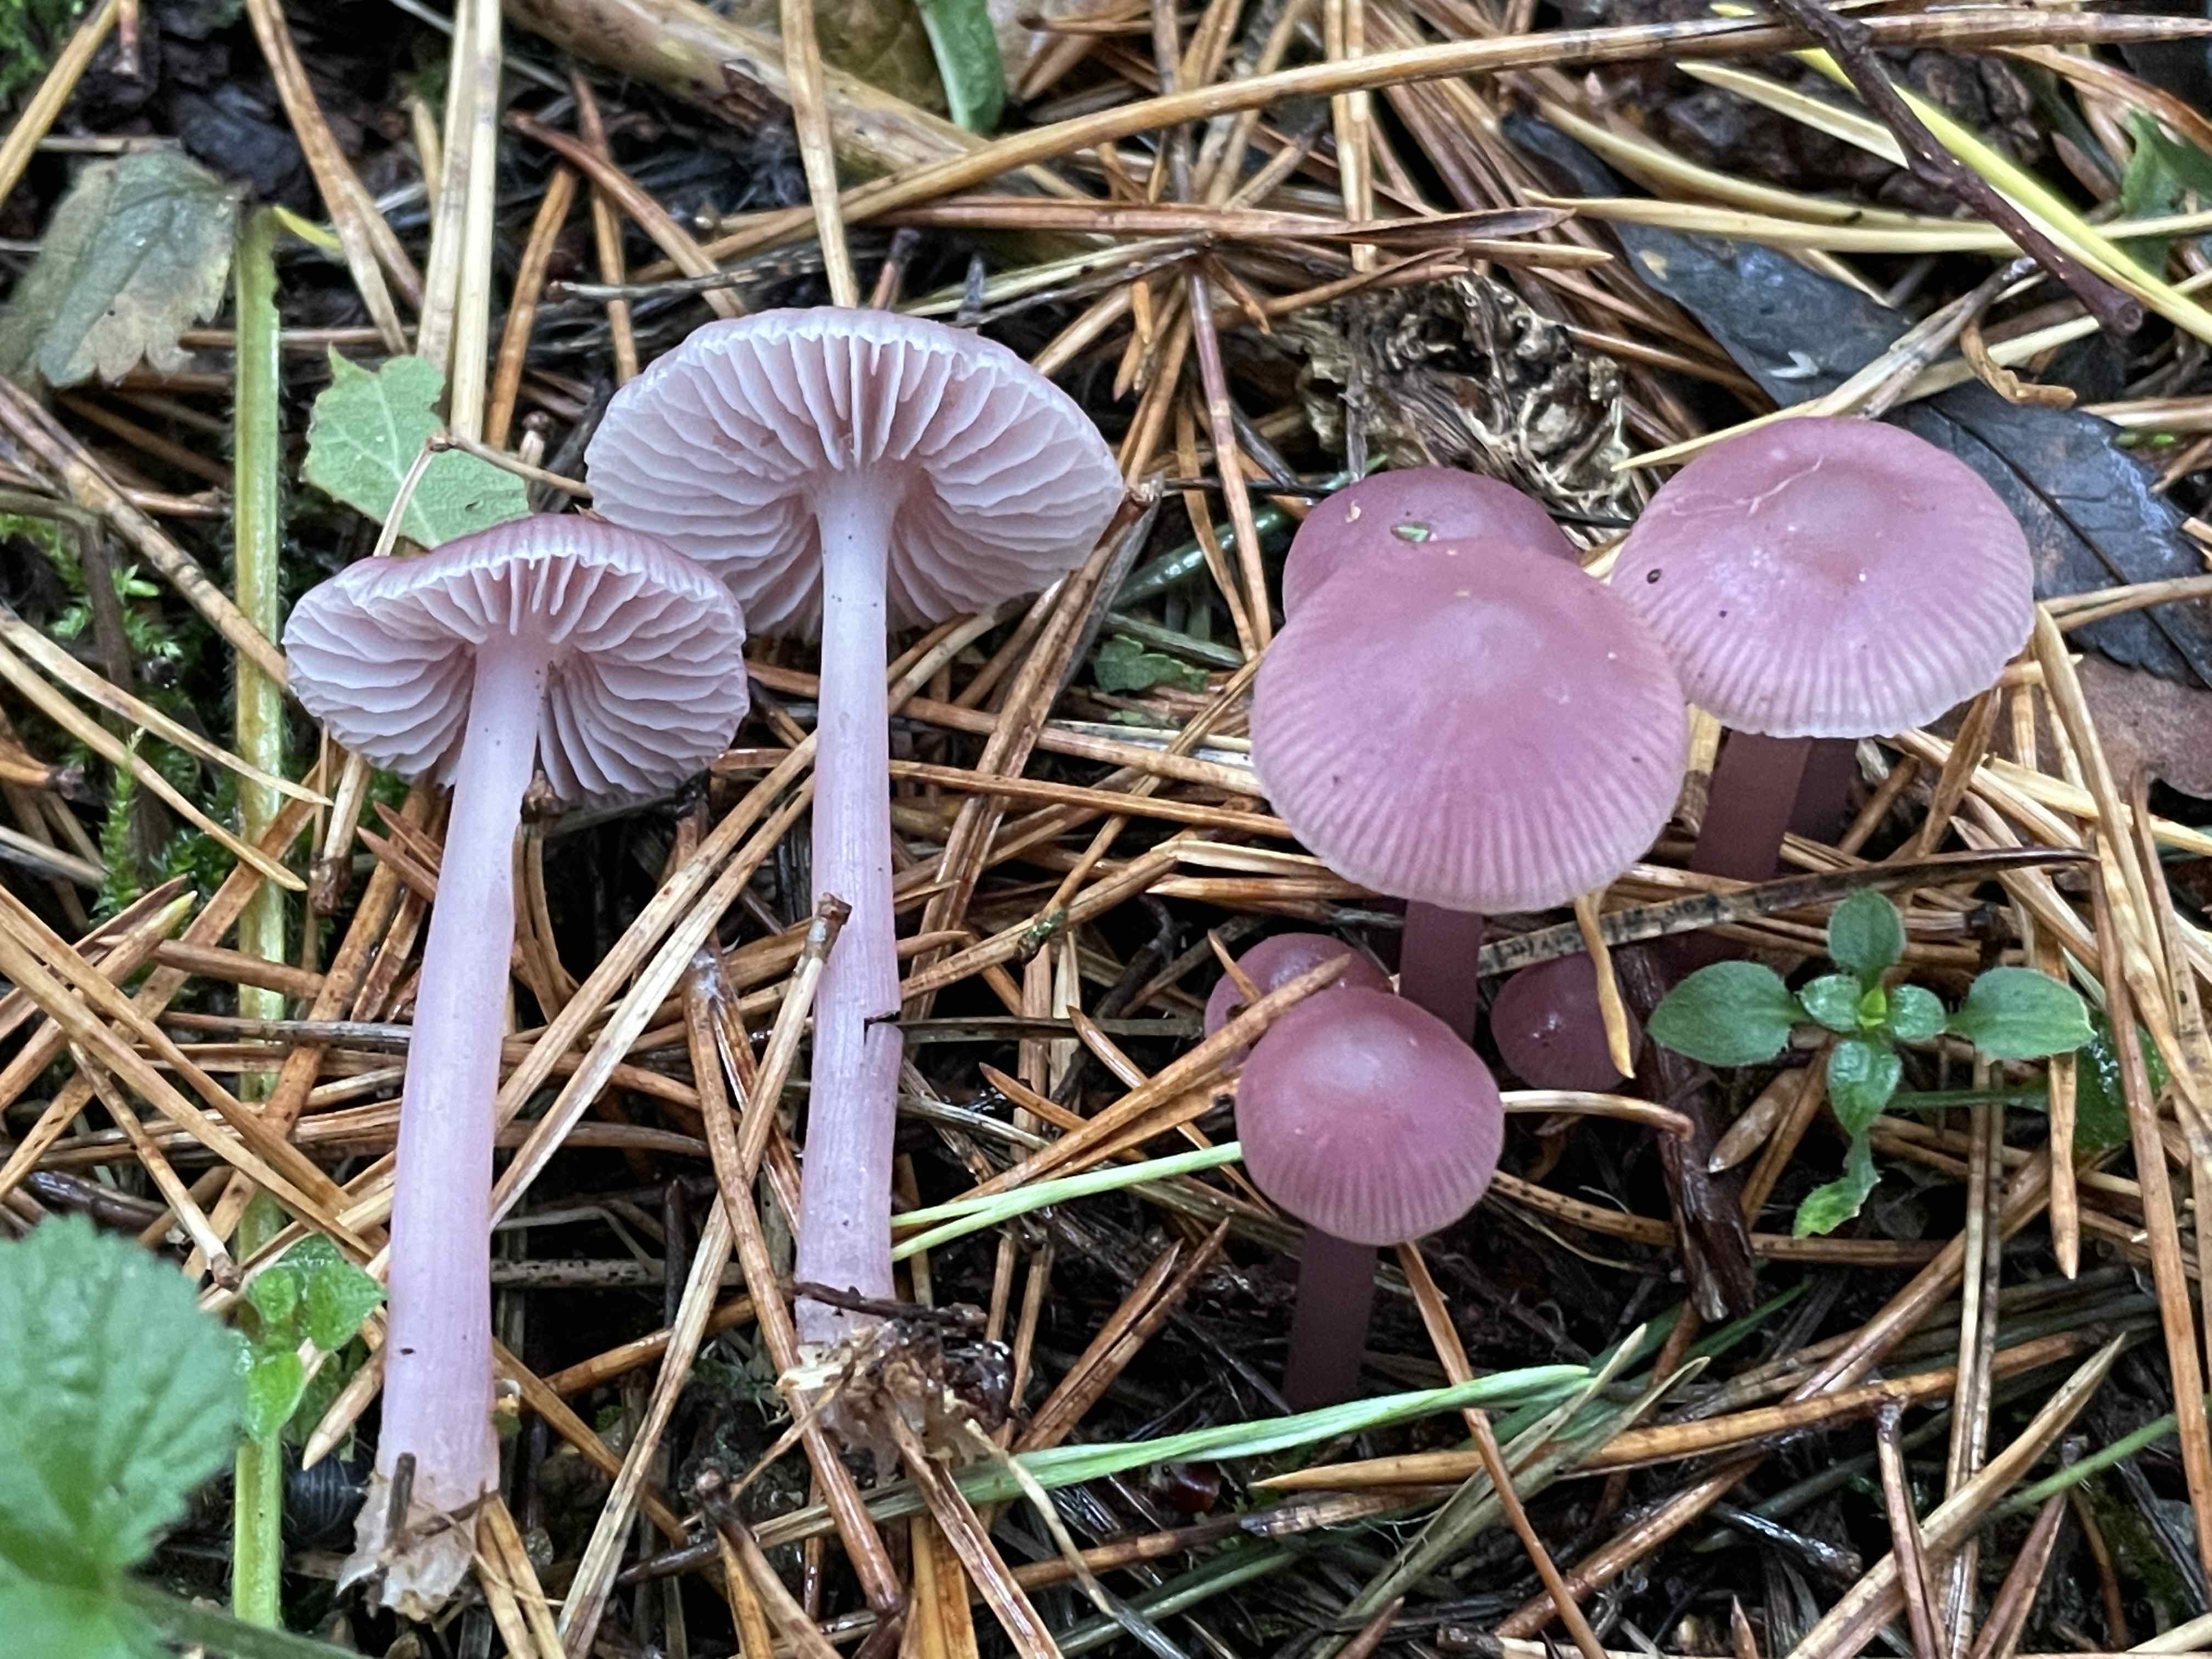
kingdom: Fungi
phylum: Basidiomycota
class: Agaricomycetes
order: Agaricales
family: Mycenaceae
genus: Mycena
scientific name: Mycena rosea
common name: rosa huesvamp
